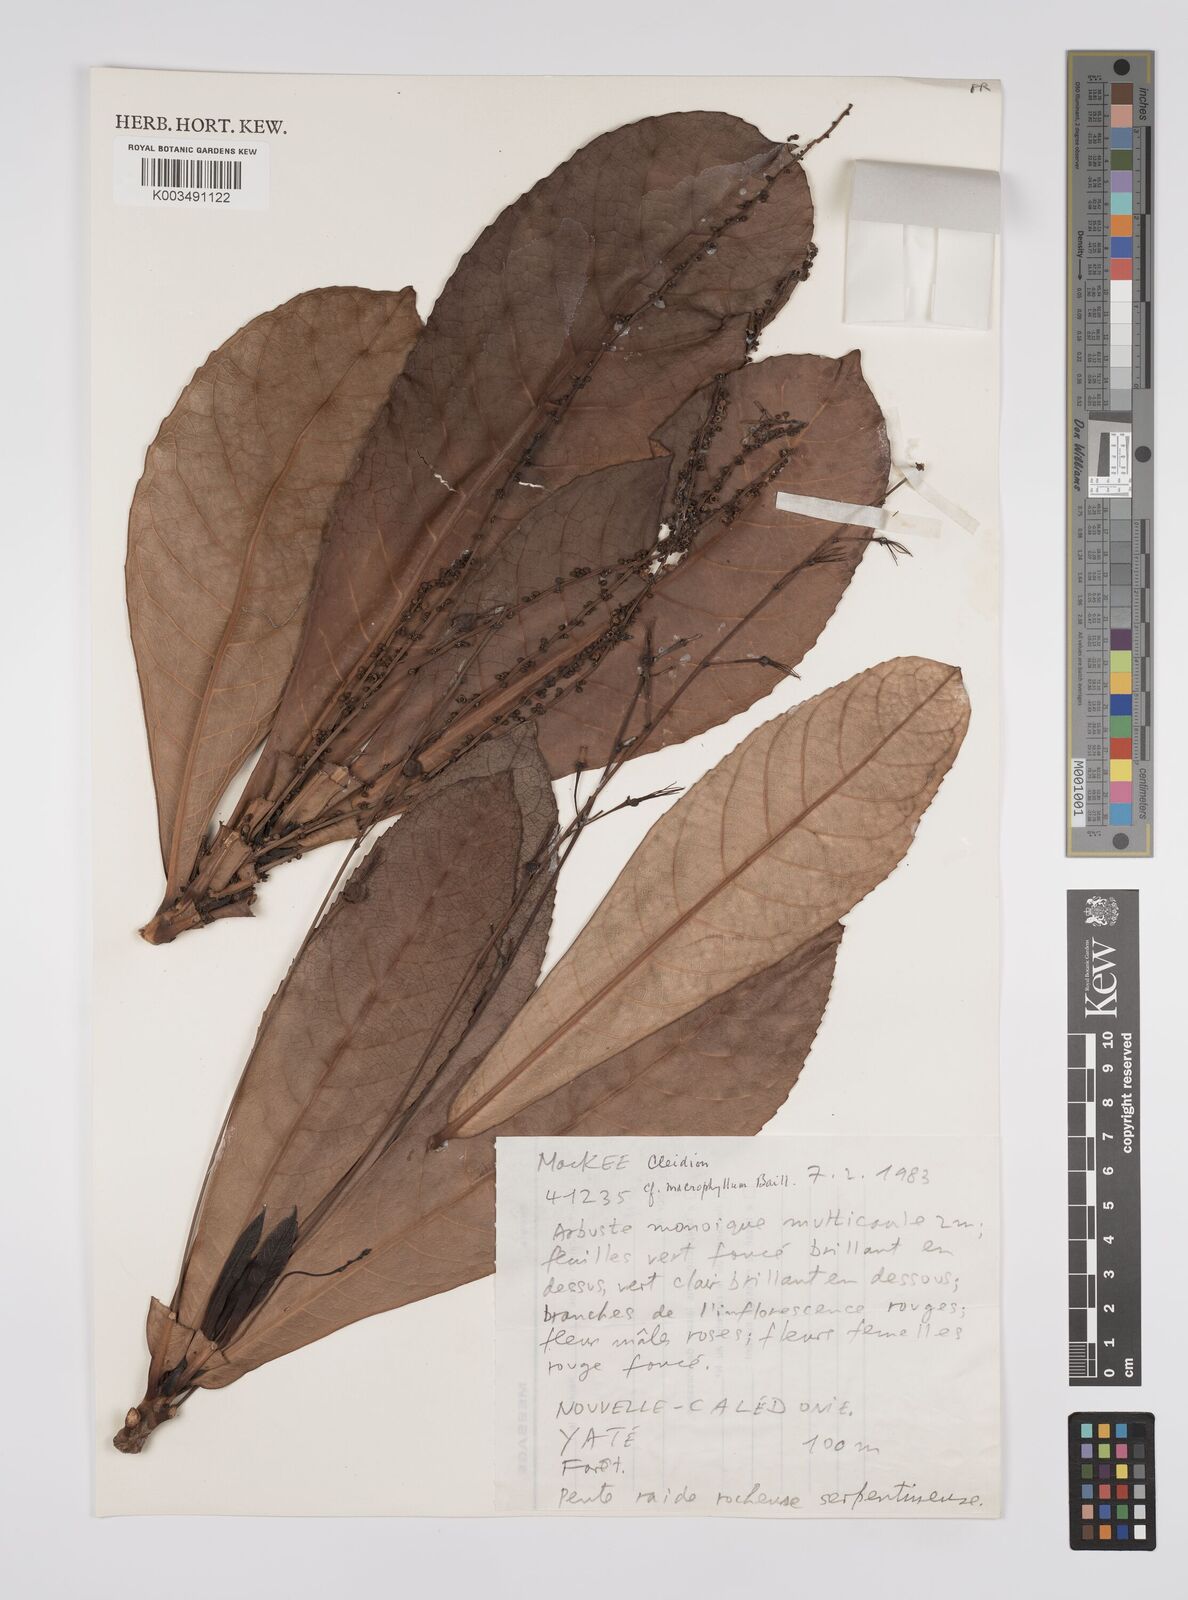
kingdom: Plantae
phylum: Tracheophyta
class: Magnoliopsida
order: Malpighiales
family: Euphorbiaceae
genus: Cleidion
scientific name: Cleidion macrophyllum
